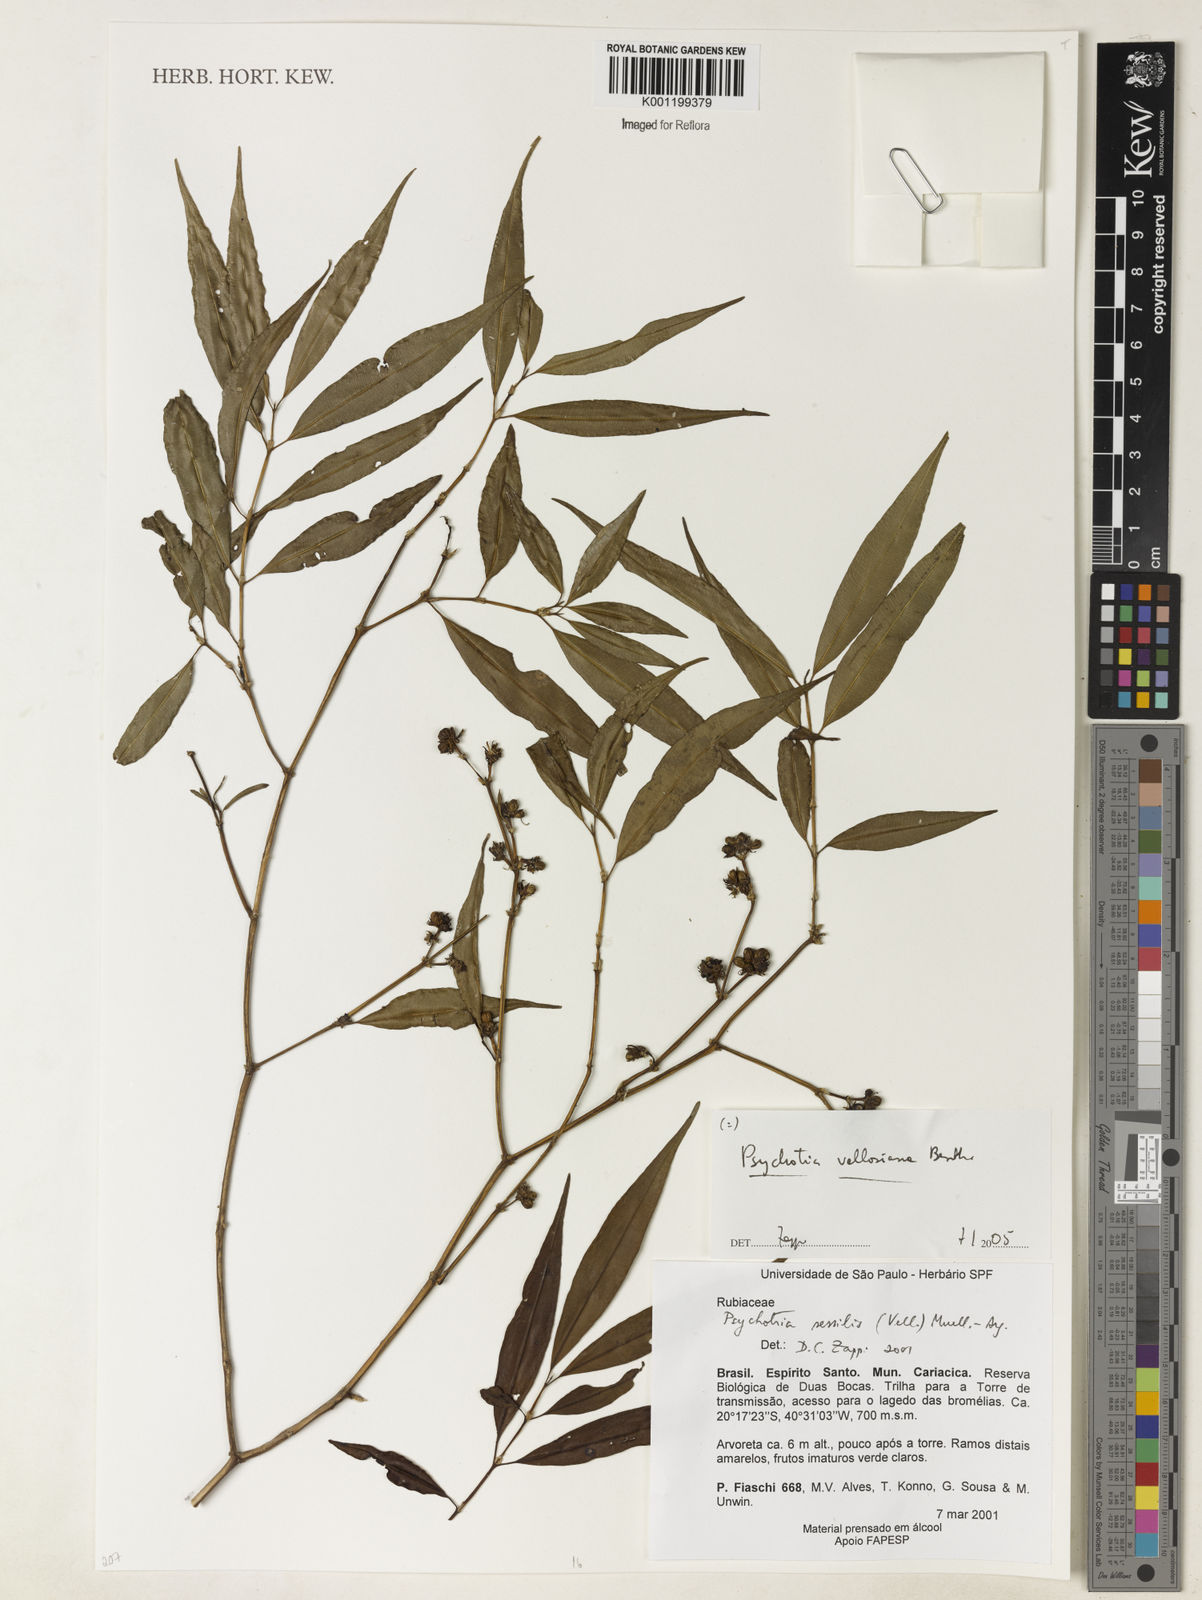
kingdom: Plantae
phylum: Tracheophyta
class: Magnoliopsida
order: Gentianales
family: Rubiaceae
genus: Palicourea
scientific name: Palicourea sessilis
